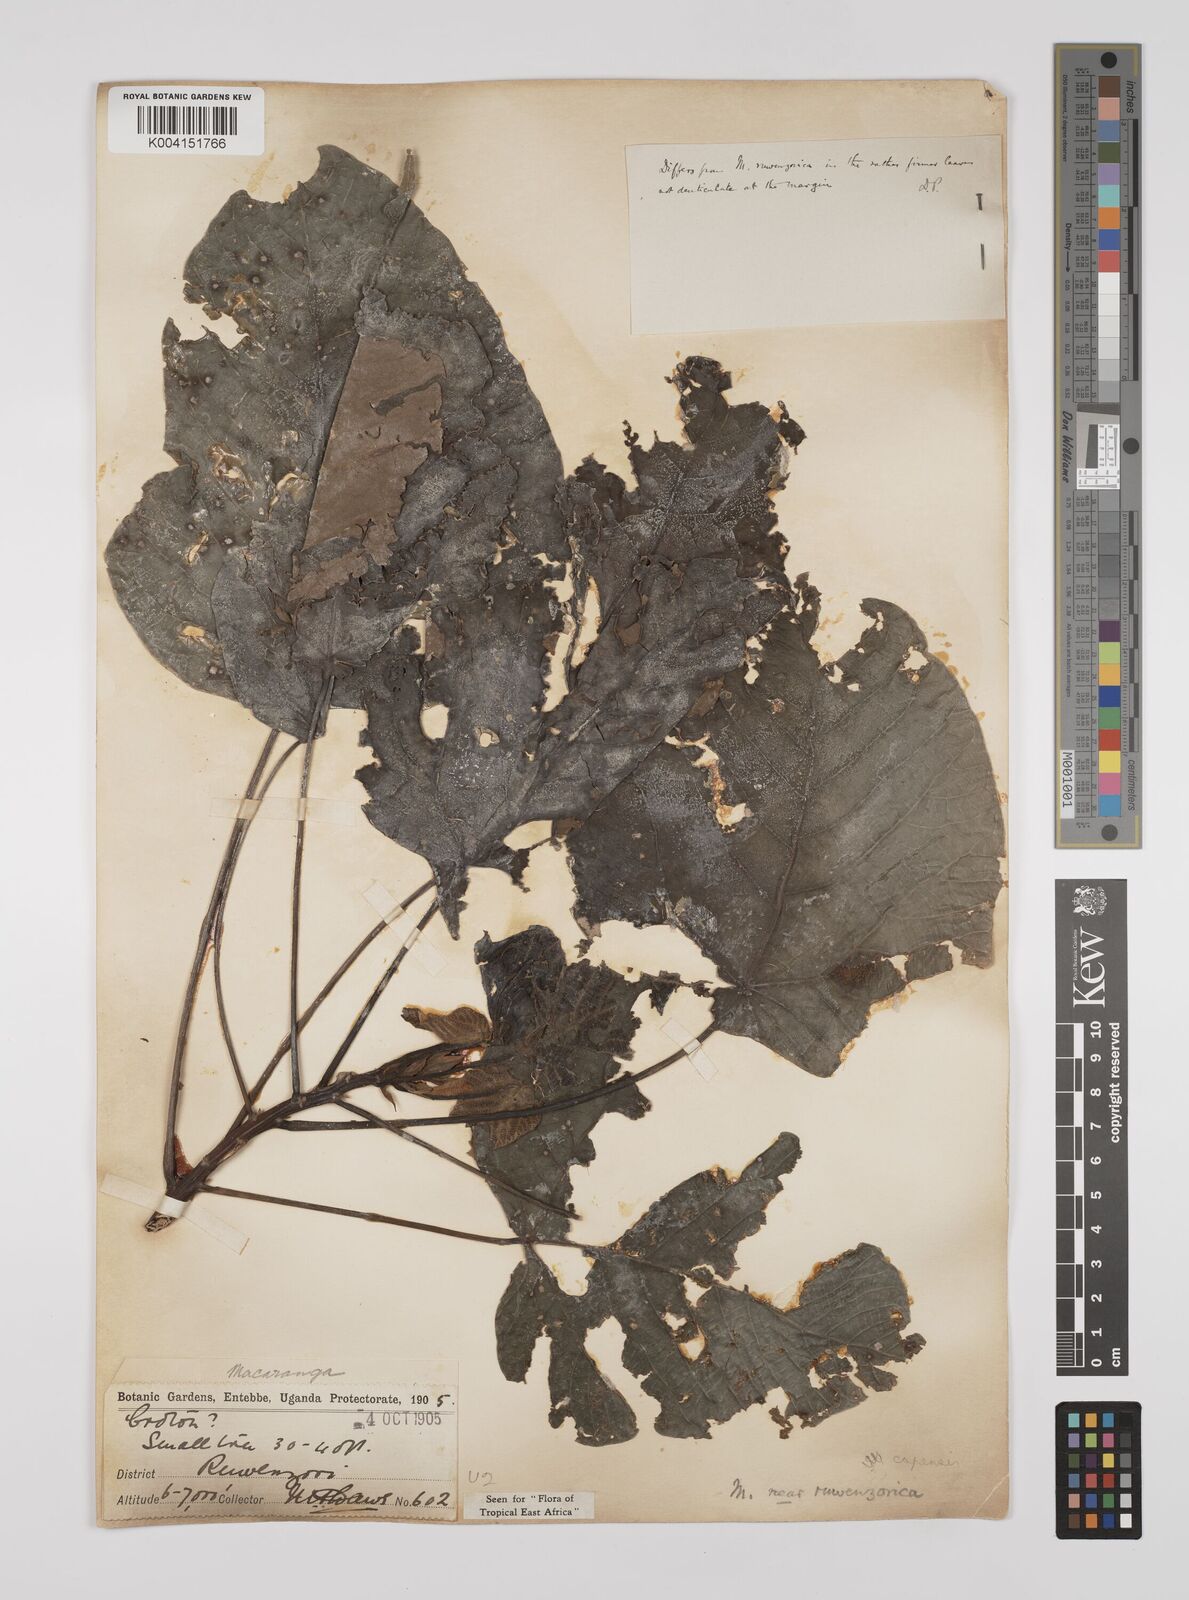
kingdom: Plantae
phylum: Tracheophyta
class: Magnoliopsida
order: Malpighiales
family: Euphorbiaceae
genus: Macaranga
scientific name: Macaranga capensis
